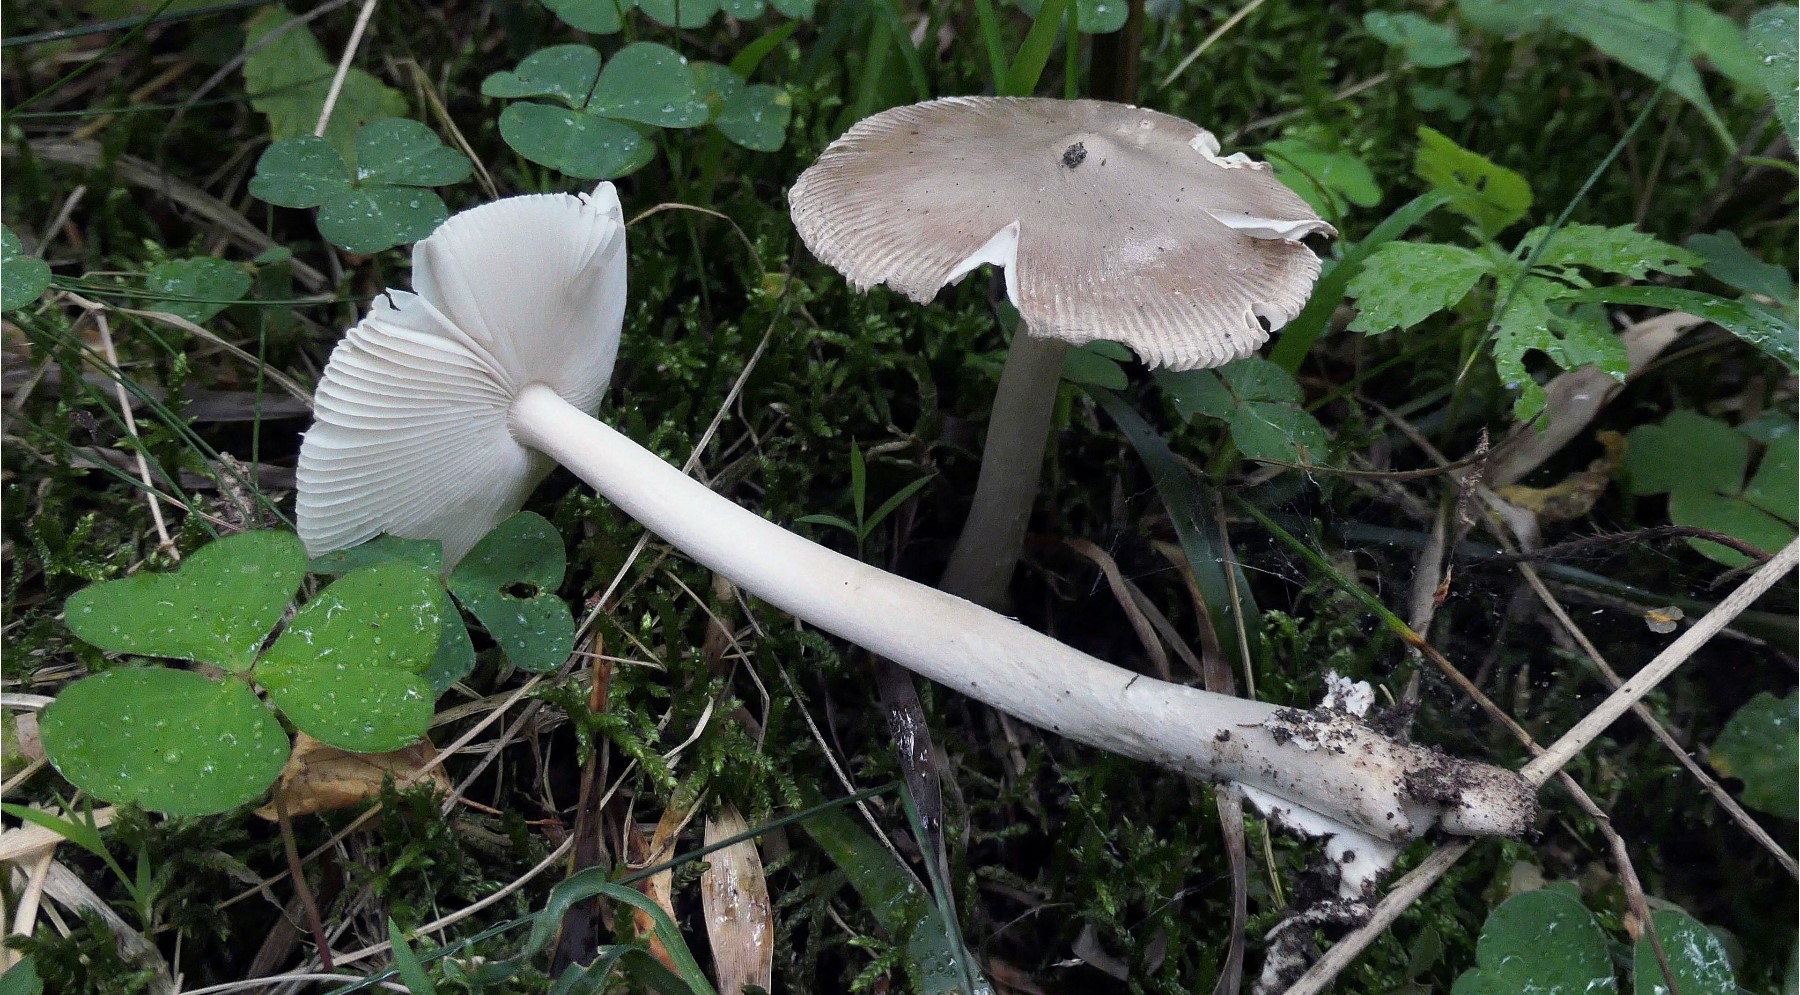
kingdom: Fungi
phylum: Basidiomycota
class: Agaricomycetes
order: Agaricales
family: Amanitaceae
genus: Amanita
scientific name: Amanita vaginata
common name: grå kam-fluesvamp
